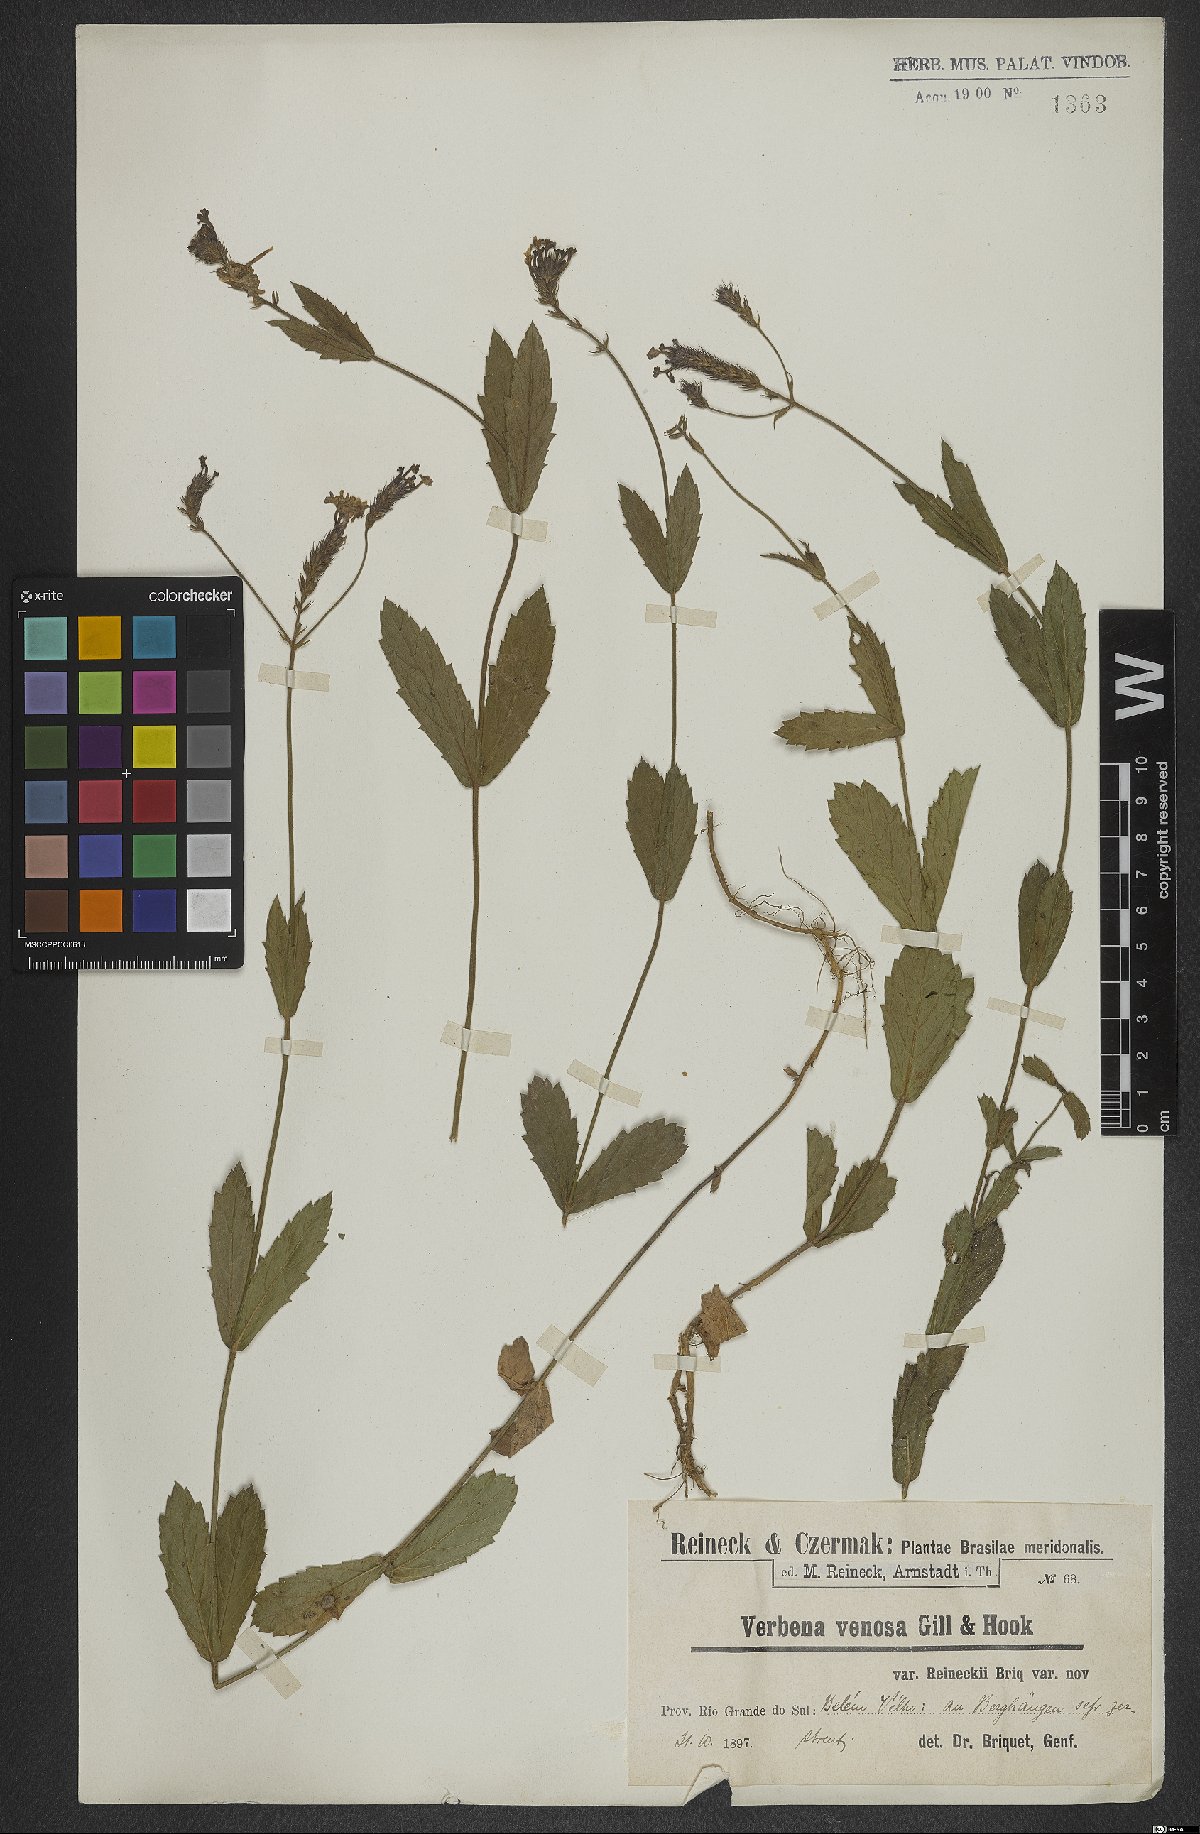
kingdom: Plantae
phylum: Tracheophyta
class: Magnoliopsida
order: Lamiales
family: Verbenaceae
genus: Verbena
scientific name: Verbena rigida
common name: Slender vervain
